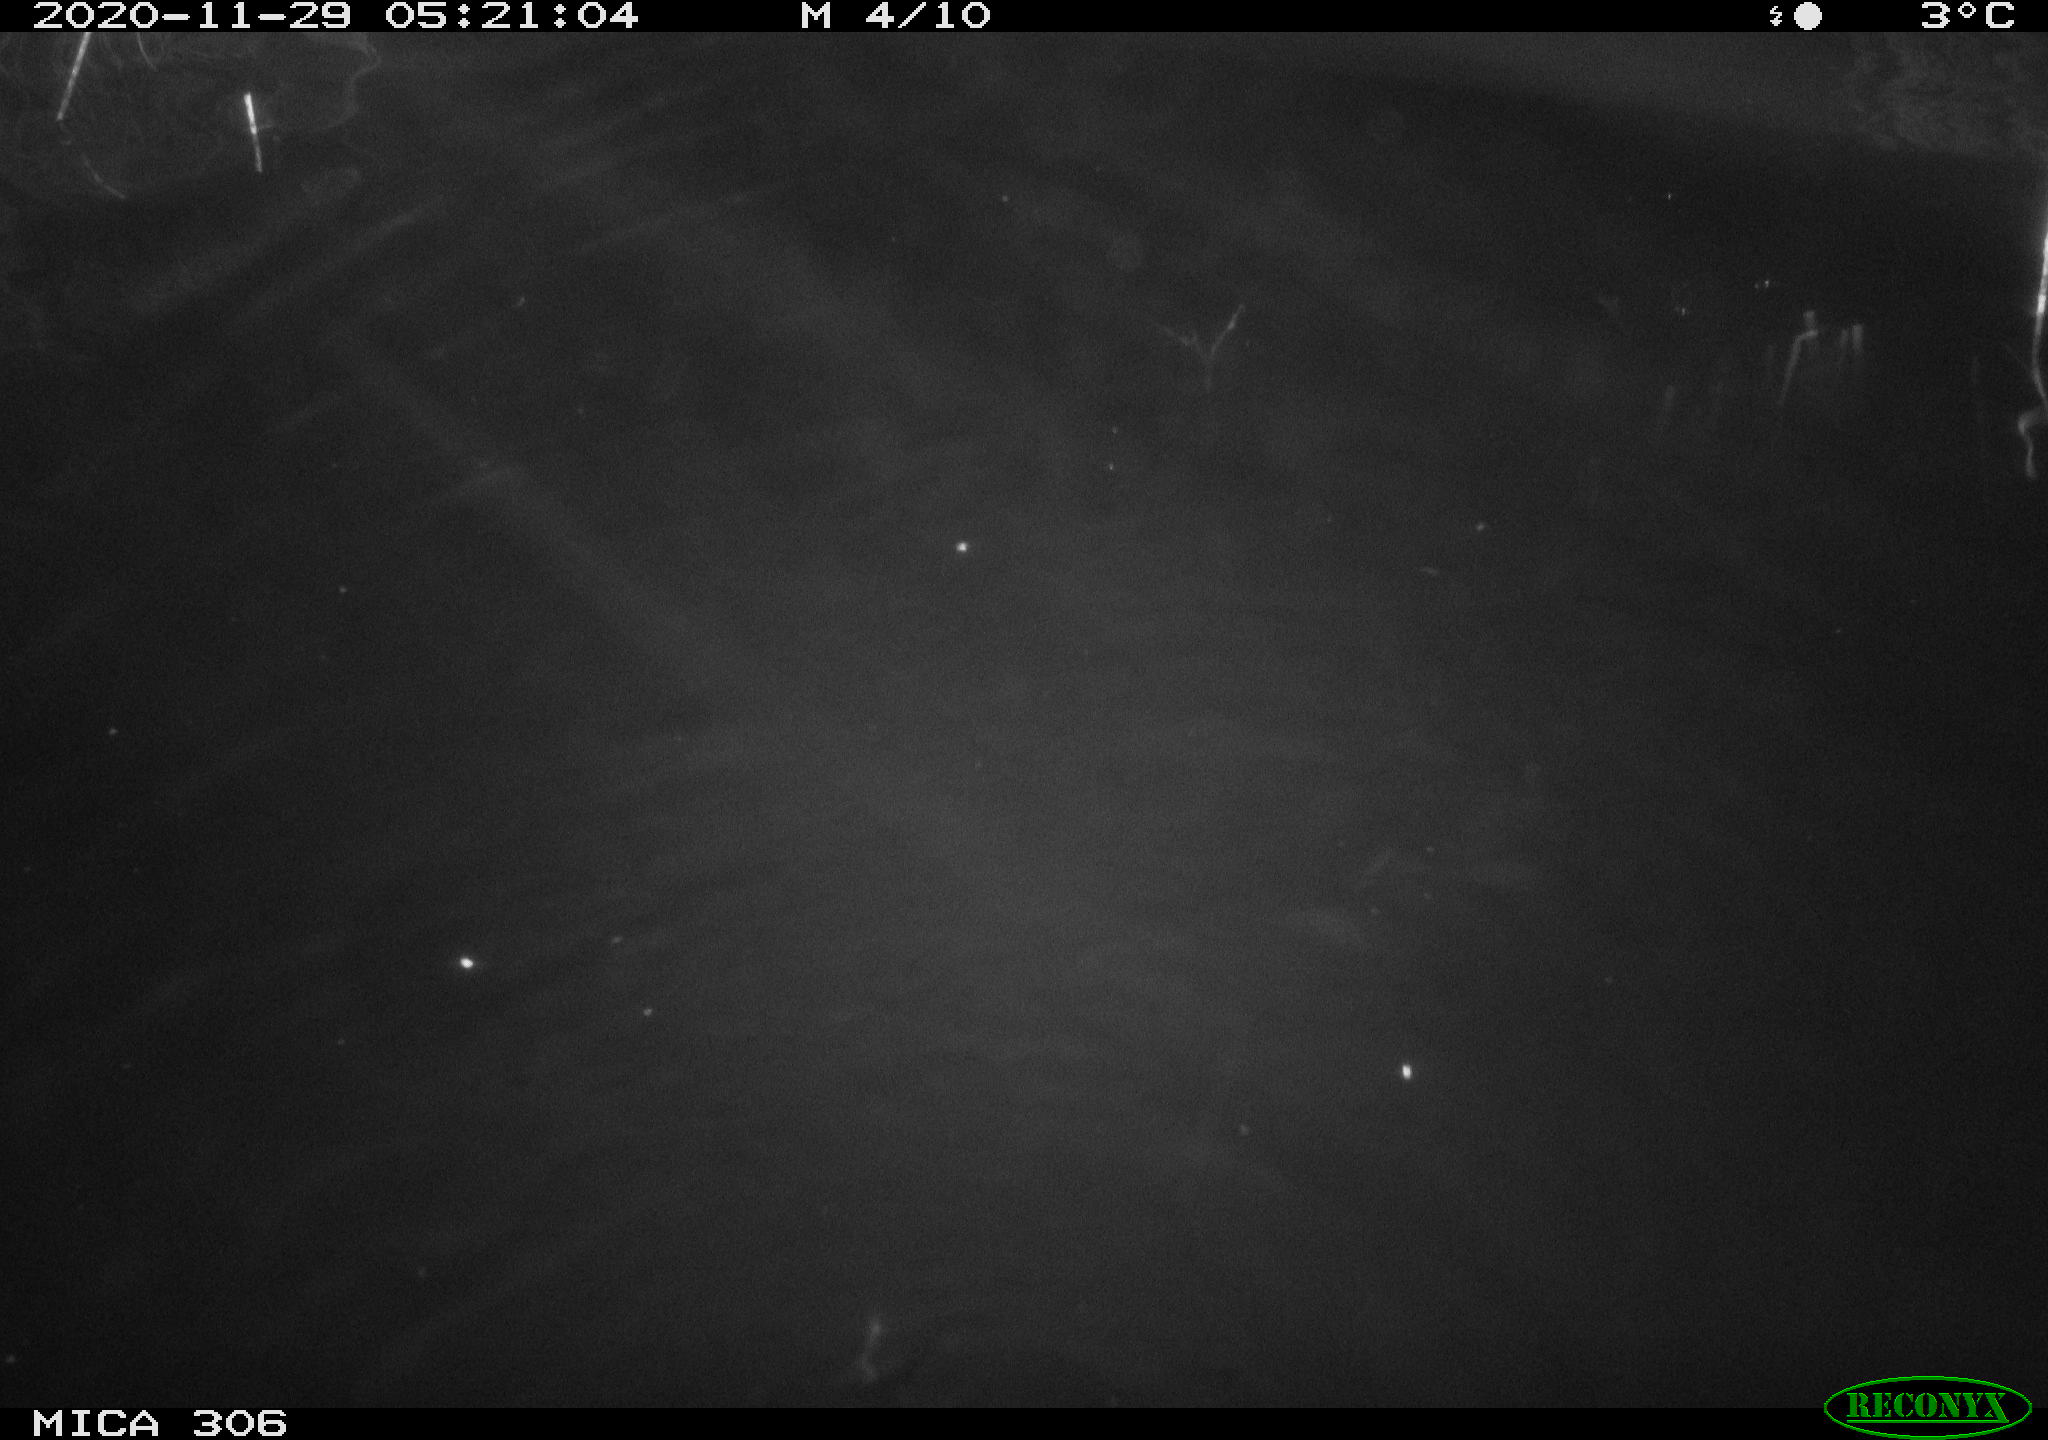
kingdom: Animalia
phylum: Chordata
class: Mammalia
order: Rodentia
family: Cricetidae
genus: Ondatra
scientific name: Ondatra zibethicus
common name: Muskrat
